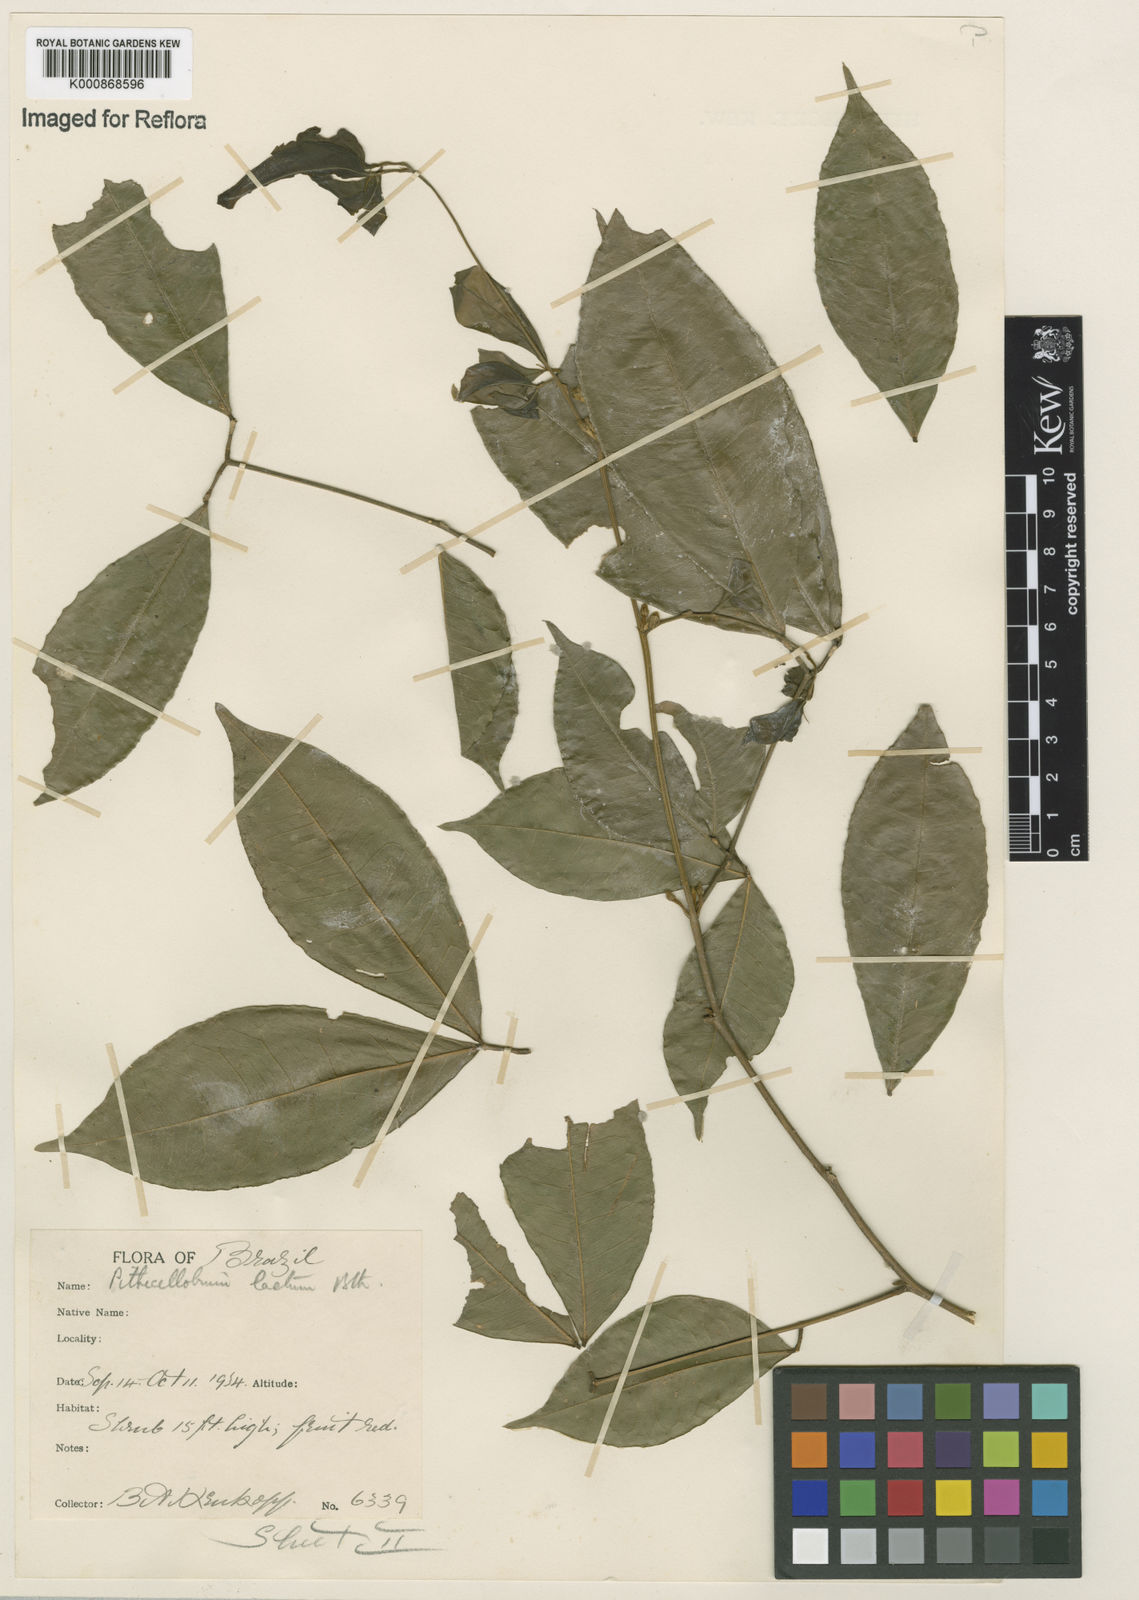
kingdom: Plantae
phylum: Tracheophyta
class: Magnoliopsida
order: Fabales
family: Fabaceae
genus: Jupunba
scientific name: Jupunba laeta
